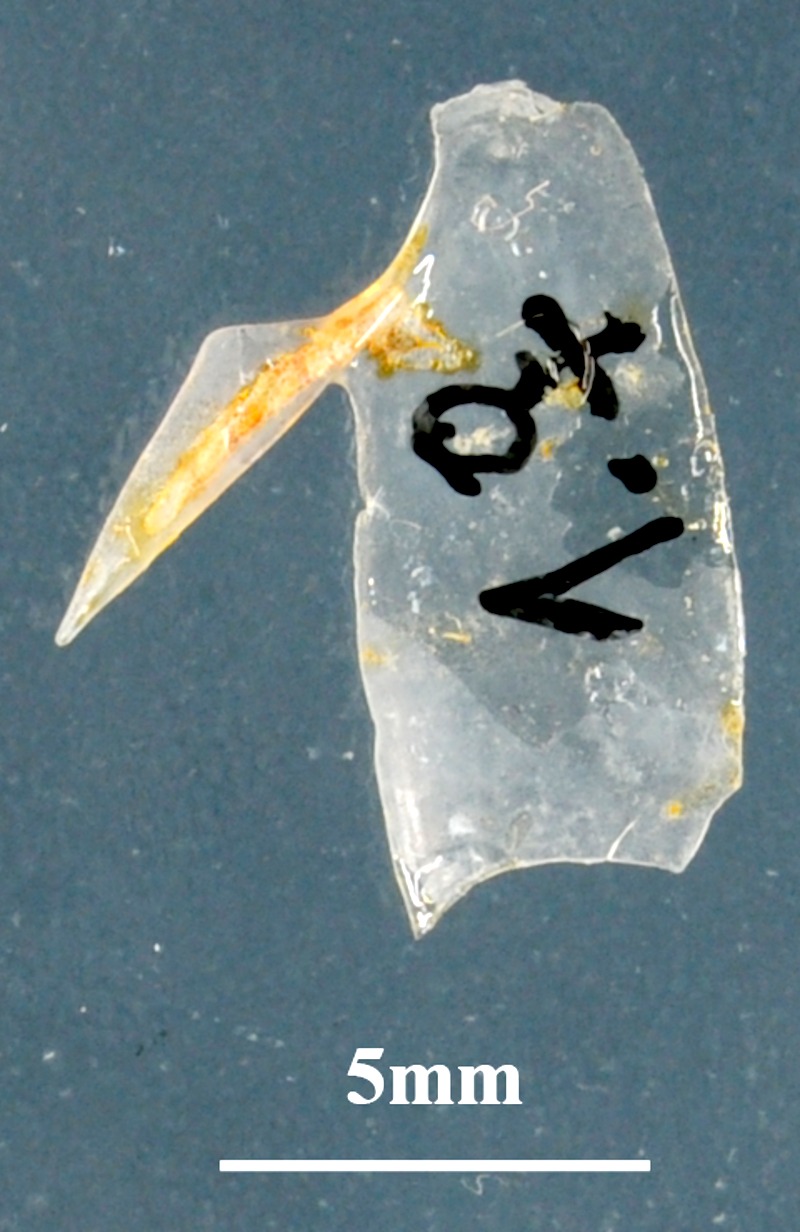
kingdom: Animalia
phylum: Chordata
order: Perciformes
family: Sparidae
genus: Spicara
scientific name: Spicara smaris
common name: Picarel
